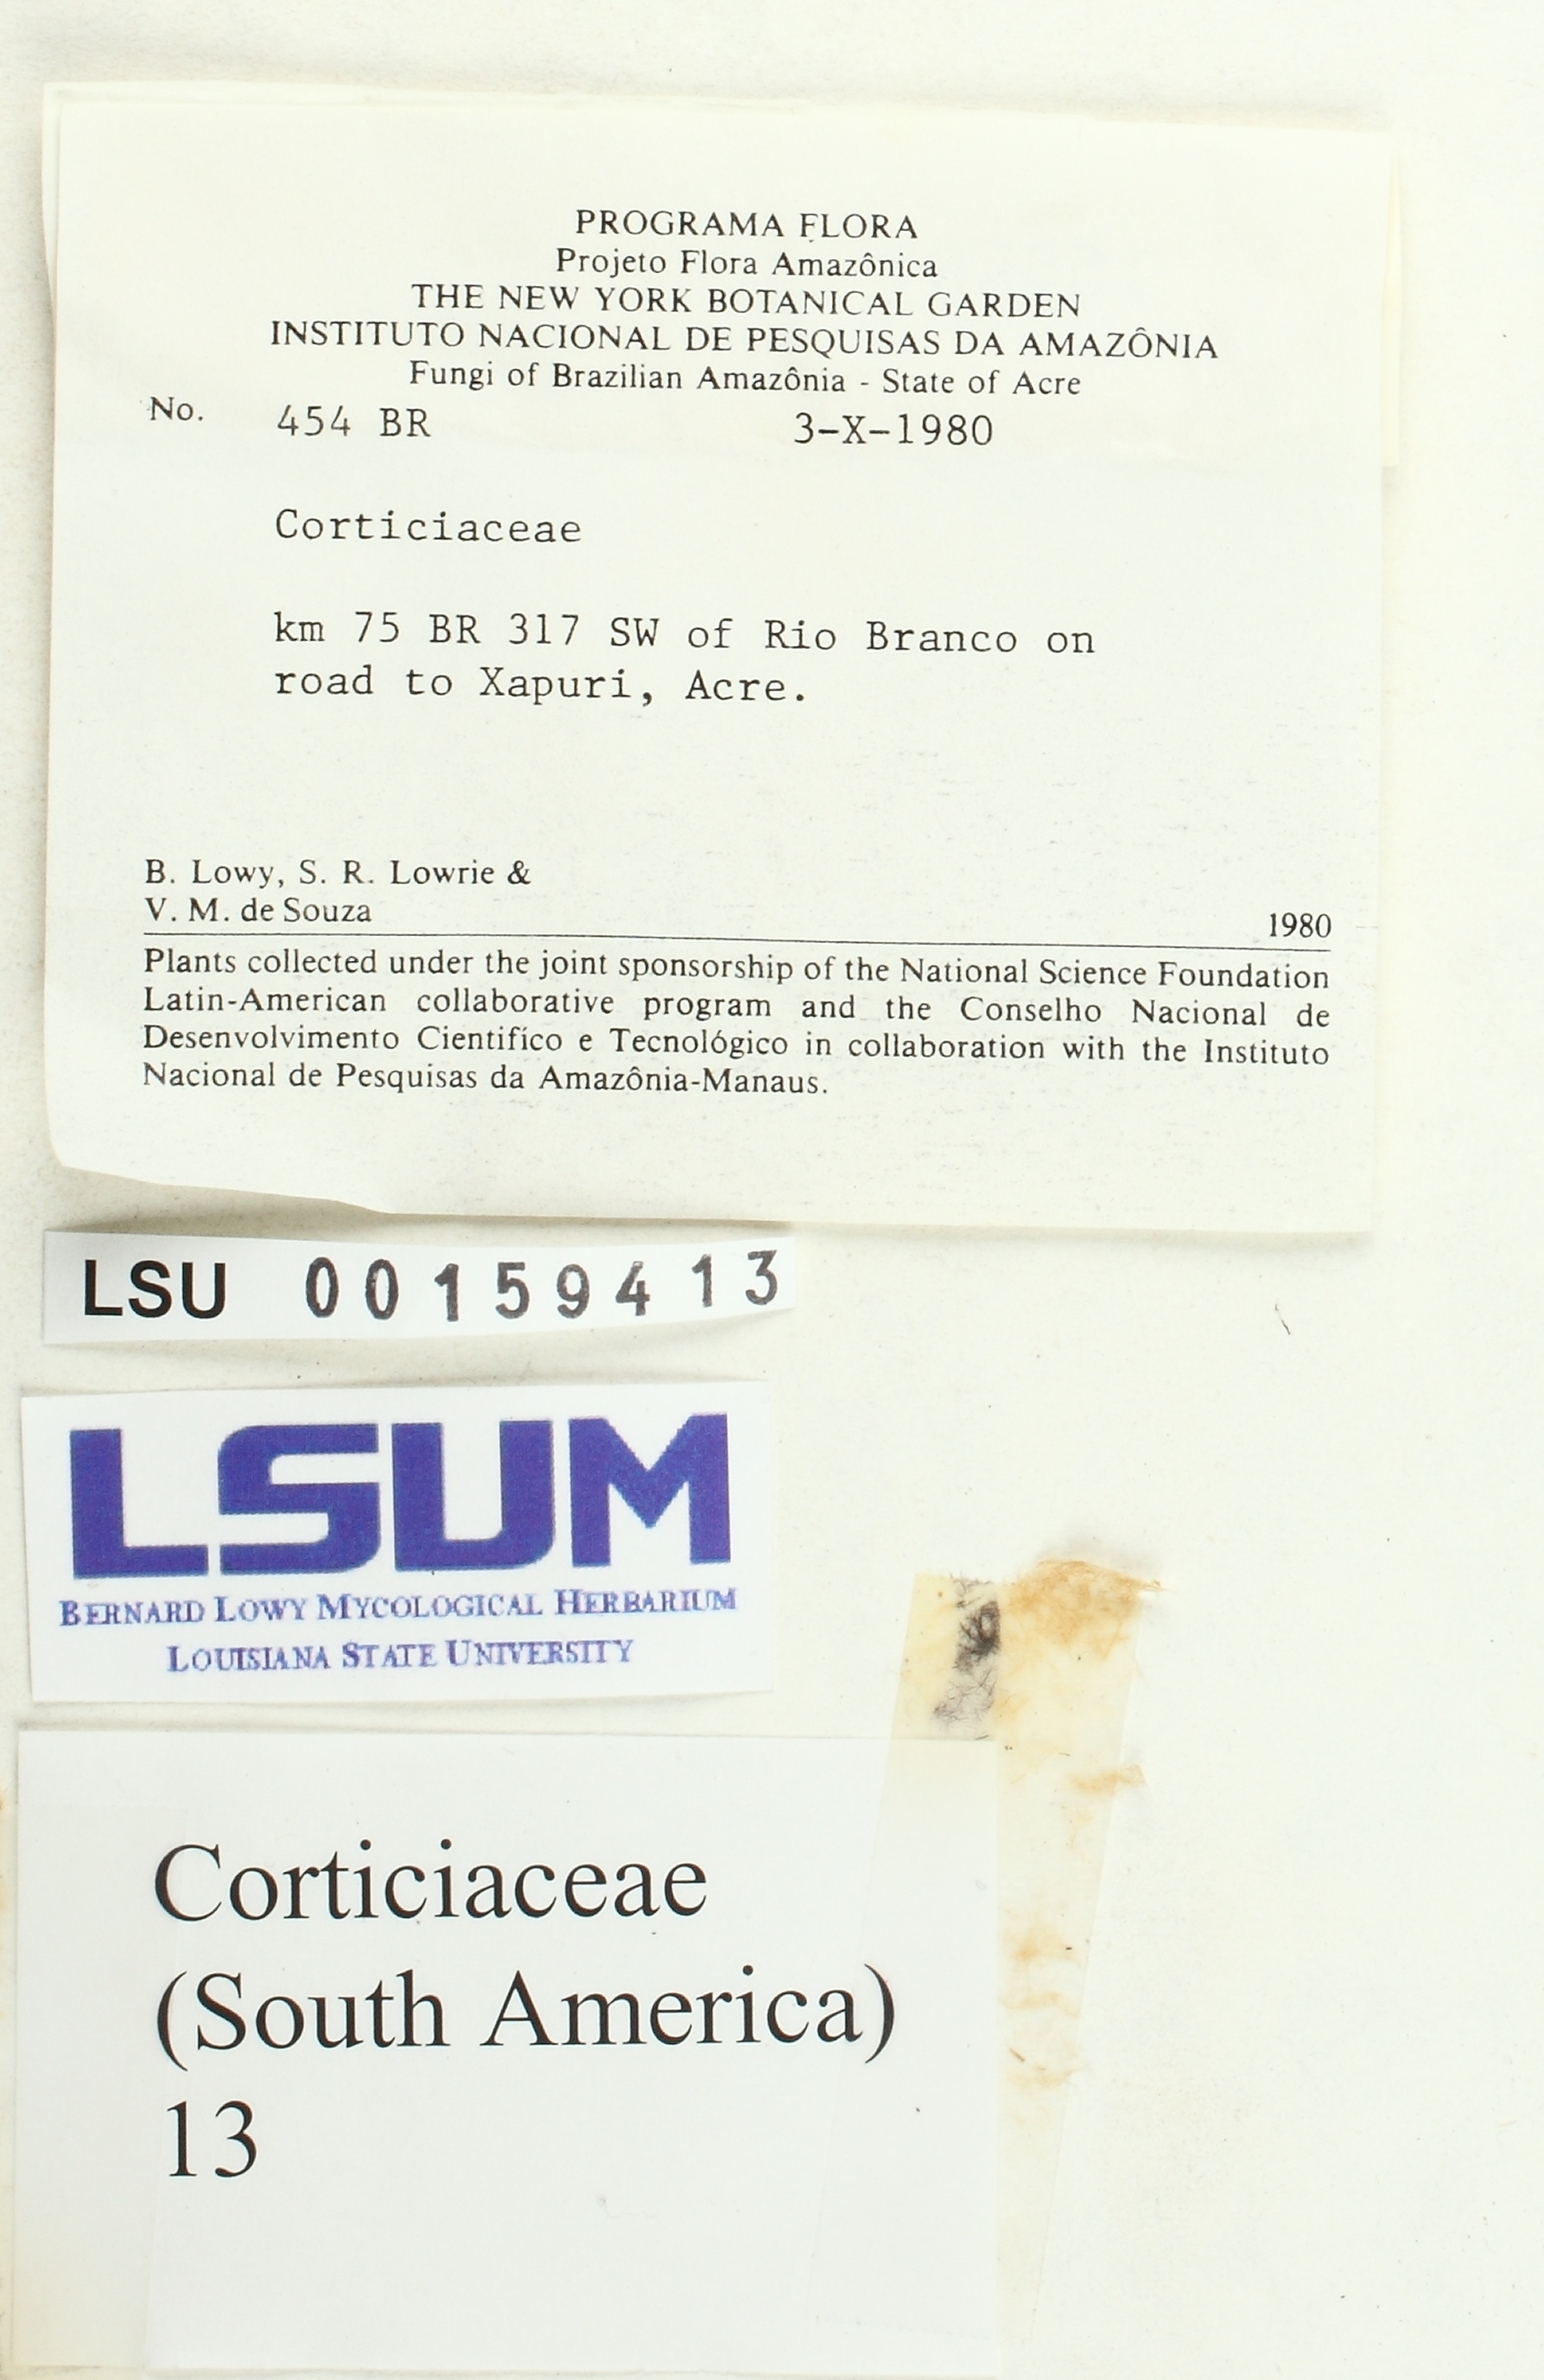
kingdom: Fungi
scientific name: Fungi
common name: Fungi
